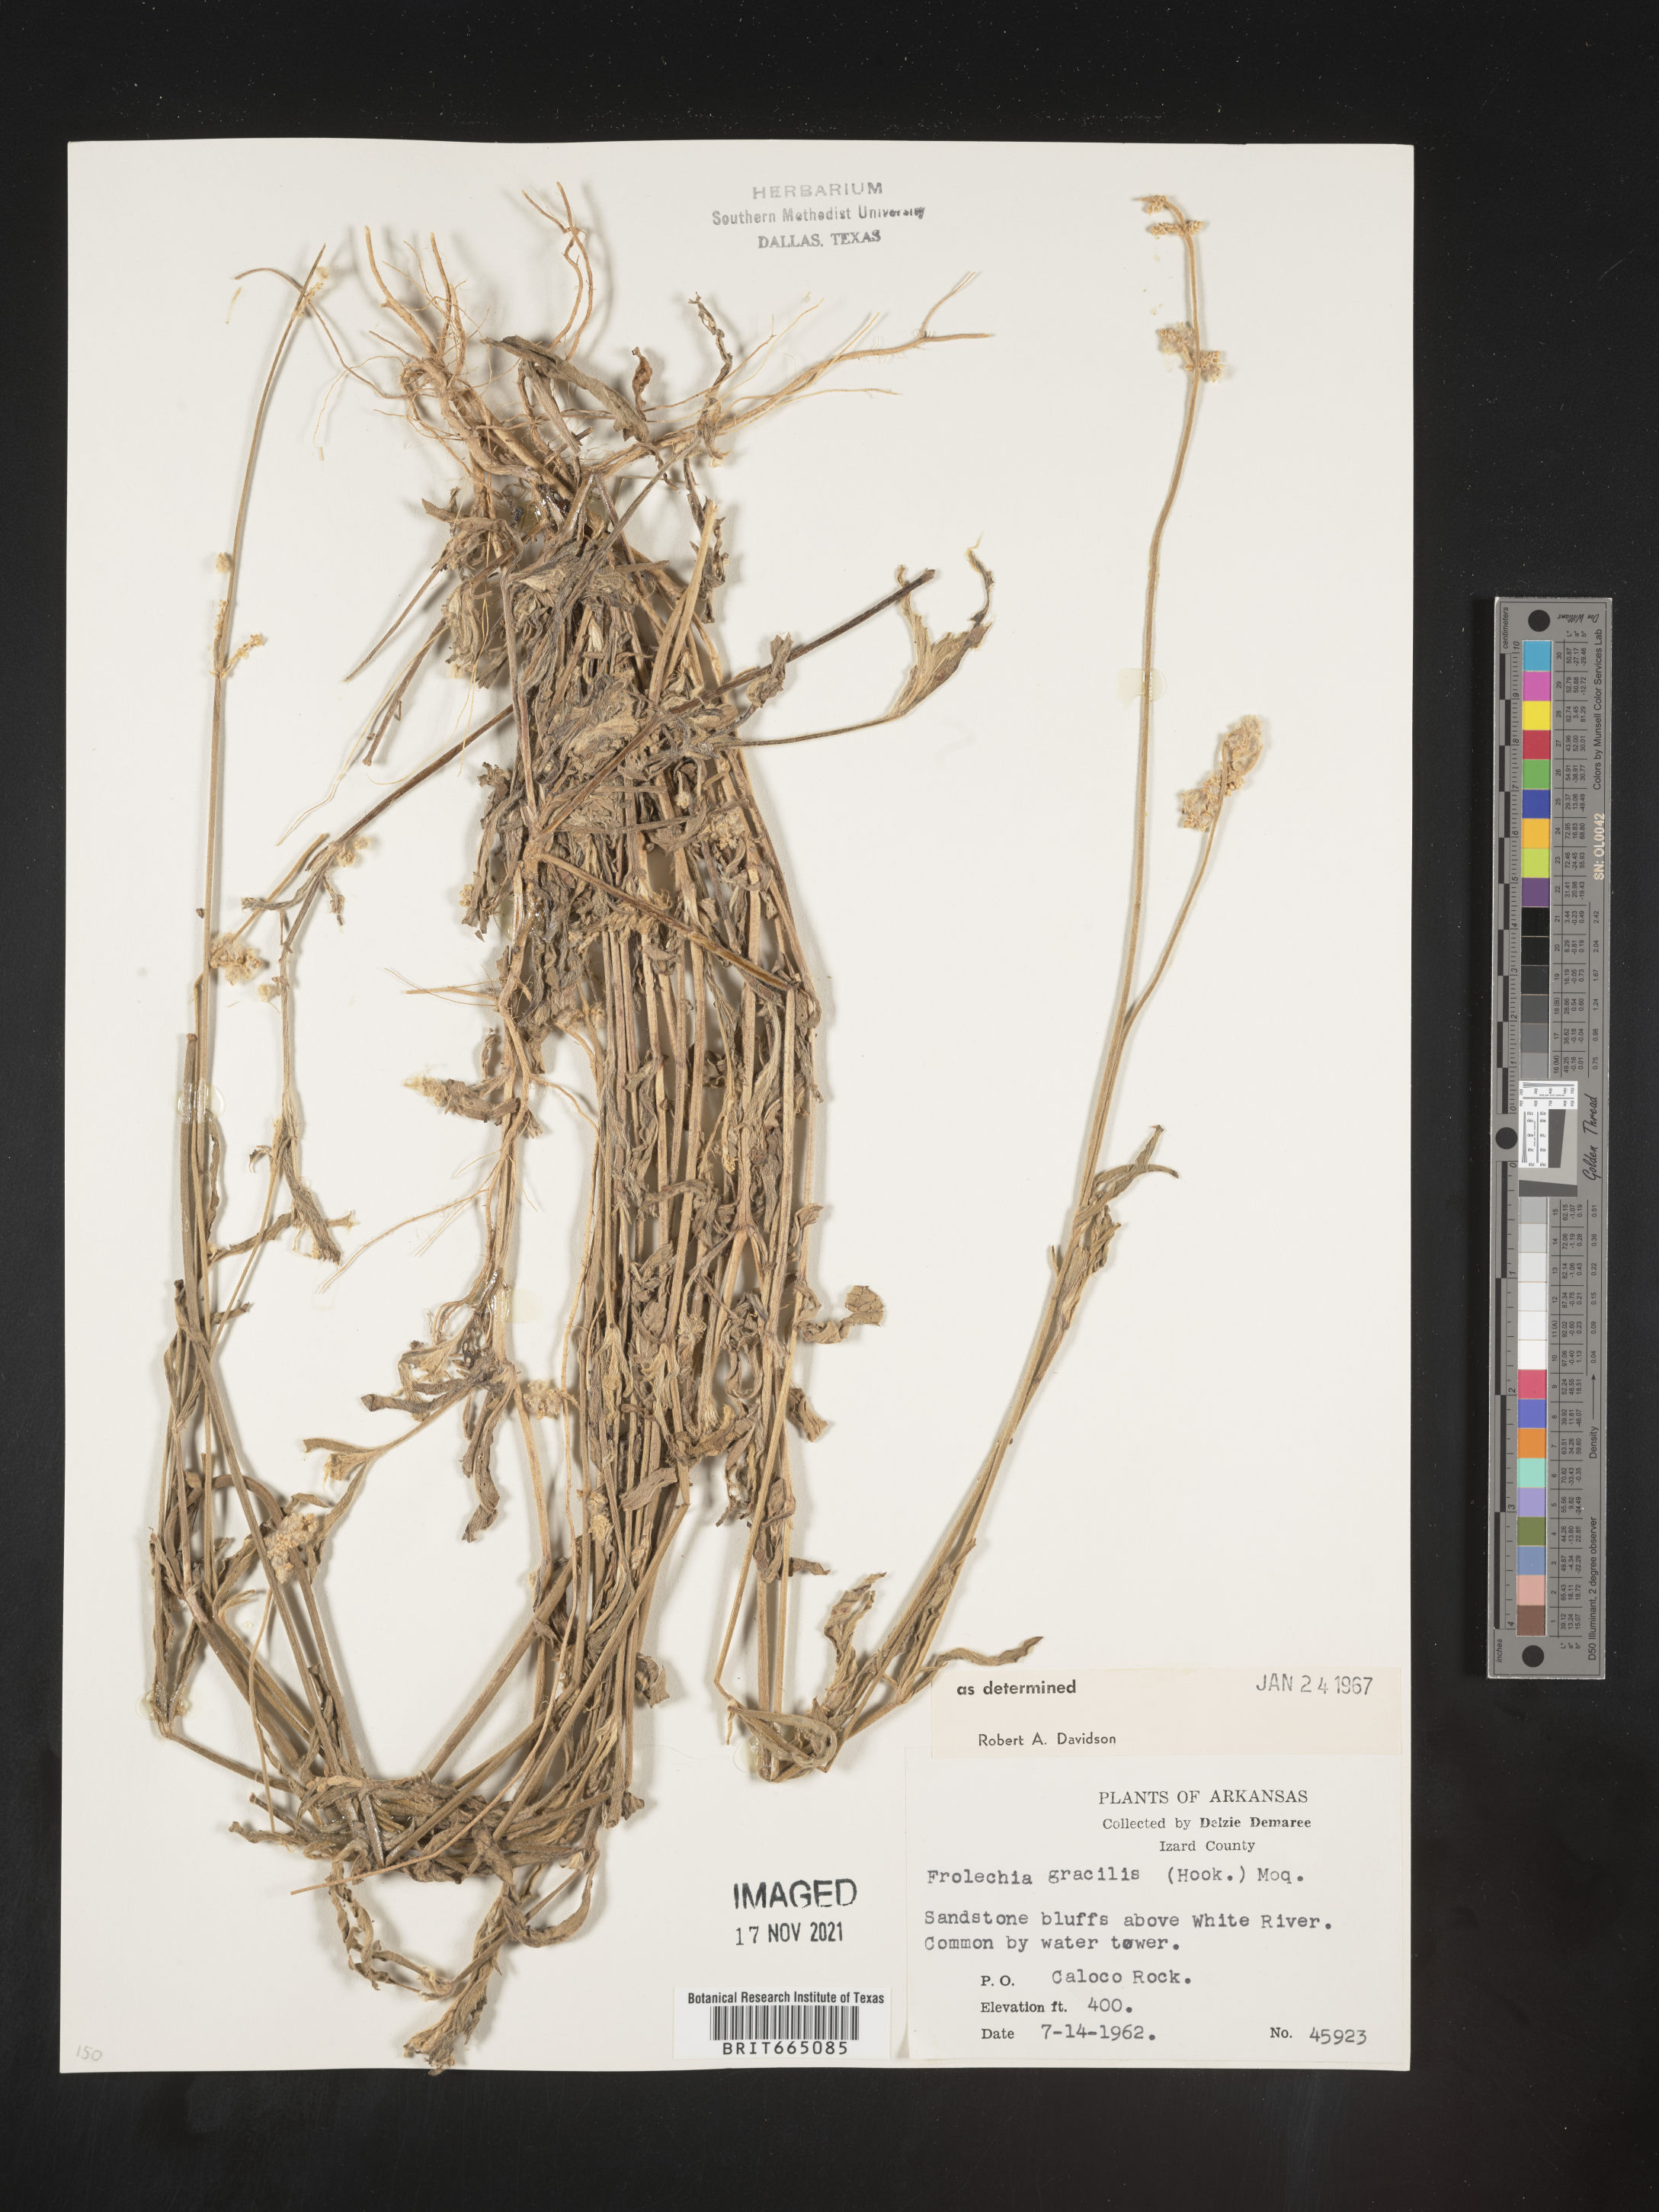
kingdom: Plantae
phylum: Tracheophyta
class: Magnoliopsida
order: Caryophyllales
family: Amaranthaceae
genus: Froelichia
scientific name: Froelichia gracilis
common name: Slender cottonweed
